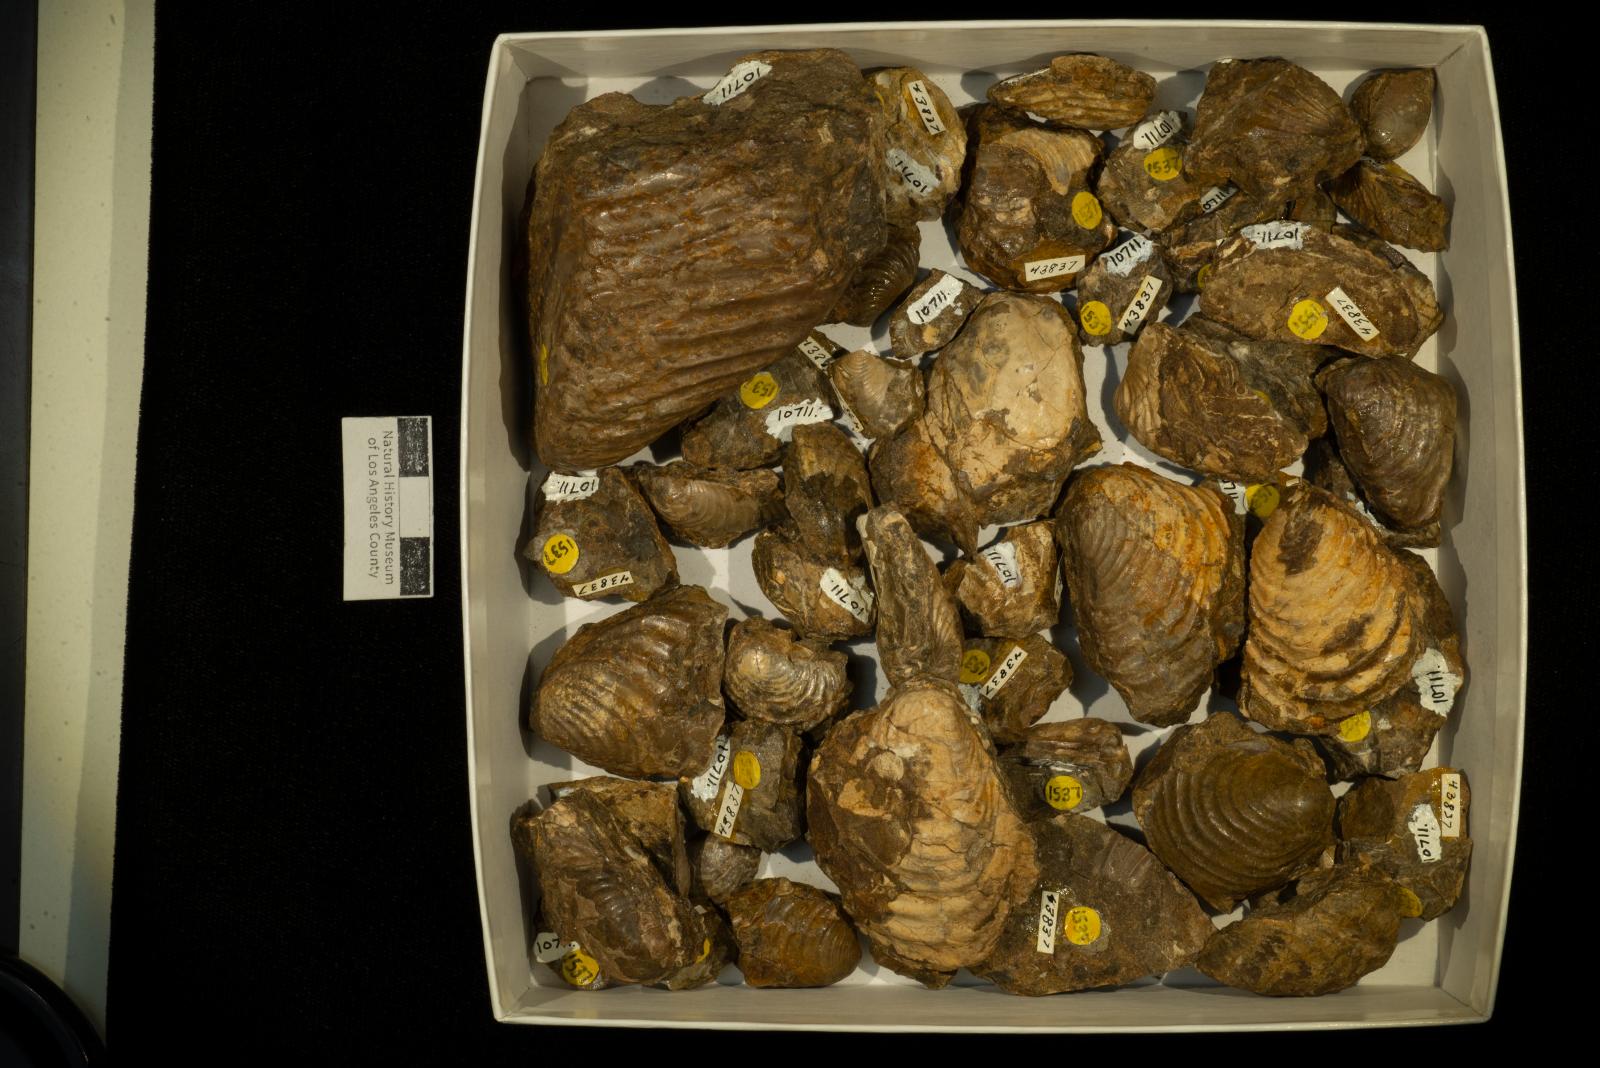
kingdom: Animalia
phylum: Mollusca
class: Bivalvia
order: Myalinida
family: Inoceramidae
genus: Cataceramus
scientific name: Cataceramus
